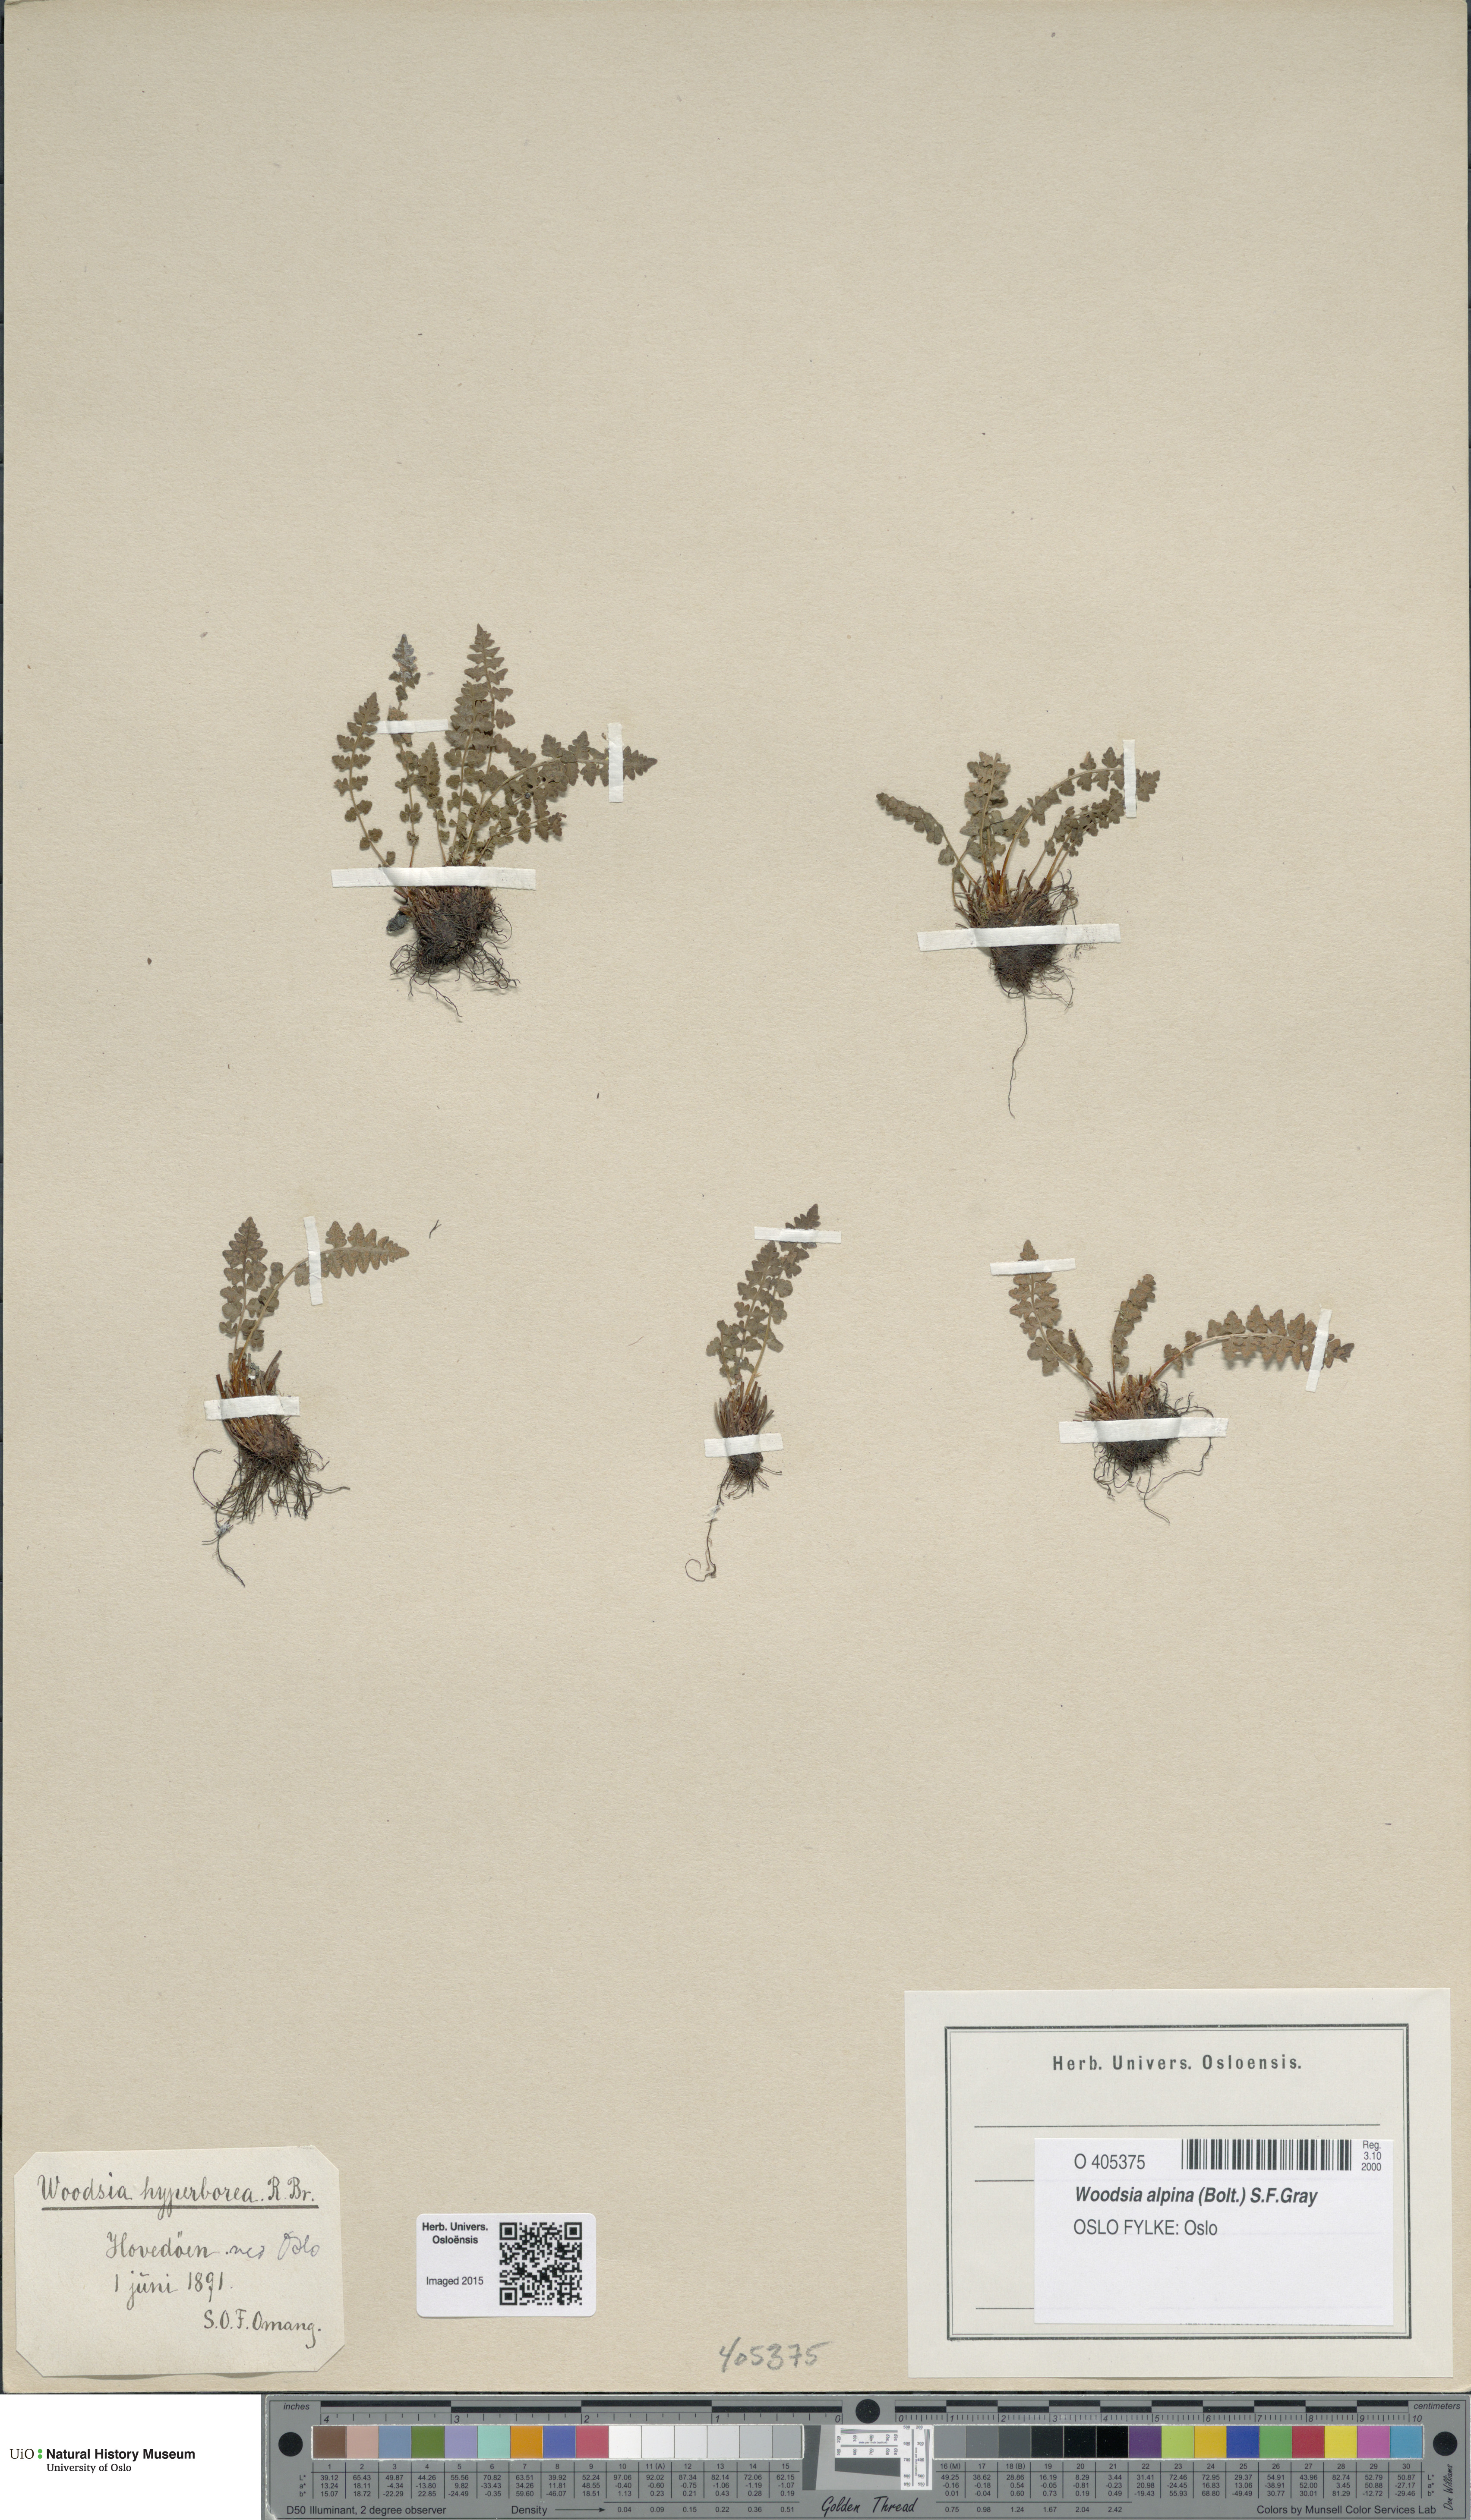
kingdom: Plantae
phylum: Tracheophyta
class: Polypodiopsida
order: Polypodiales
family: Woodsiaceae
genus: Woodsia
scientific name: Woodsia alpina
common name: Alpine woodsia
